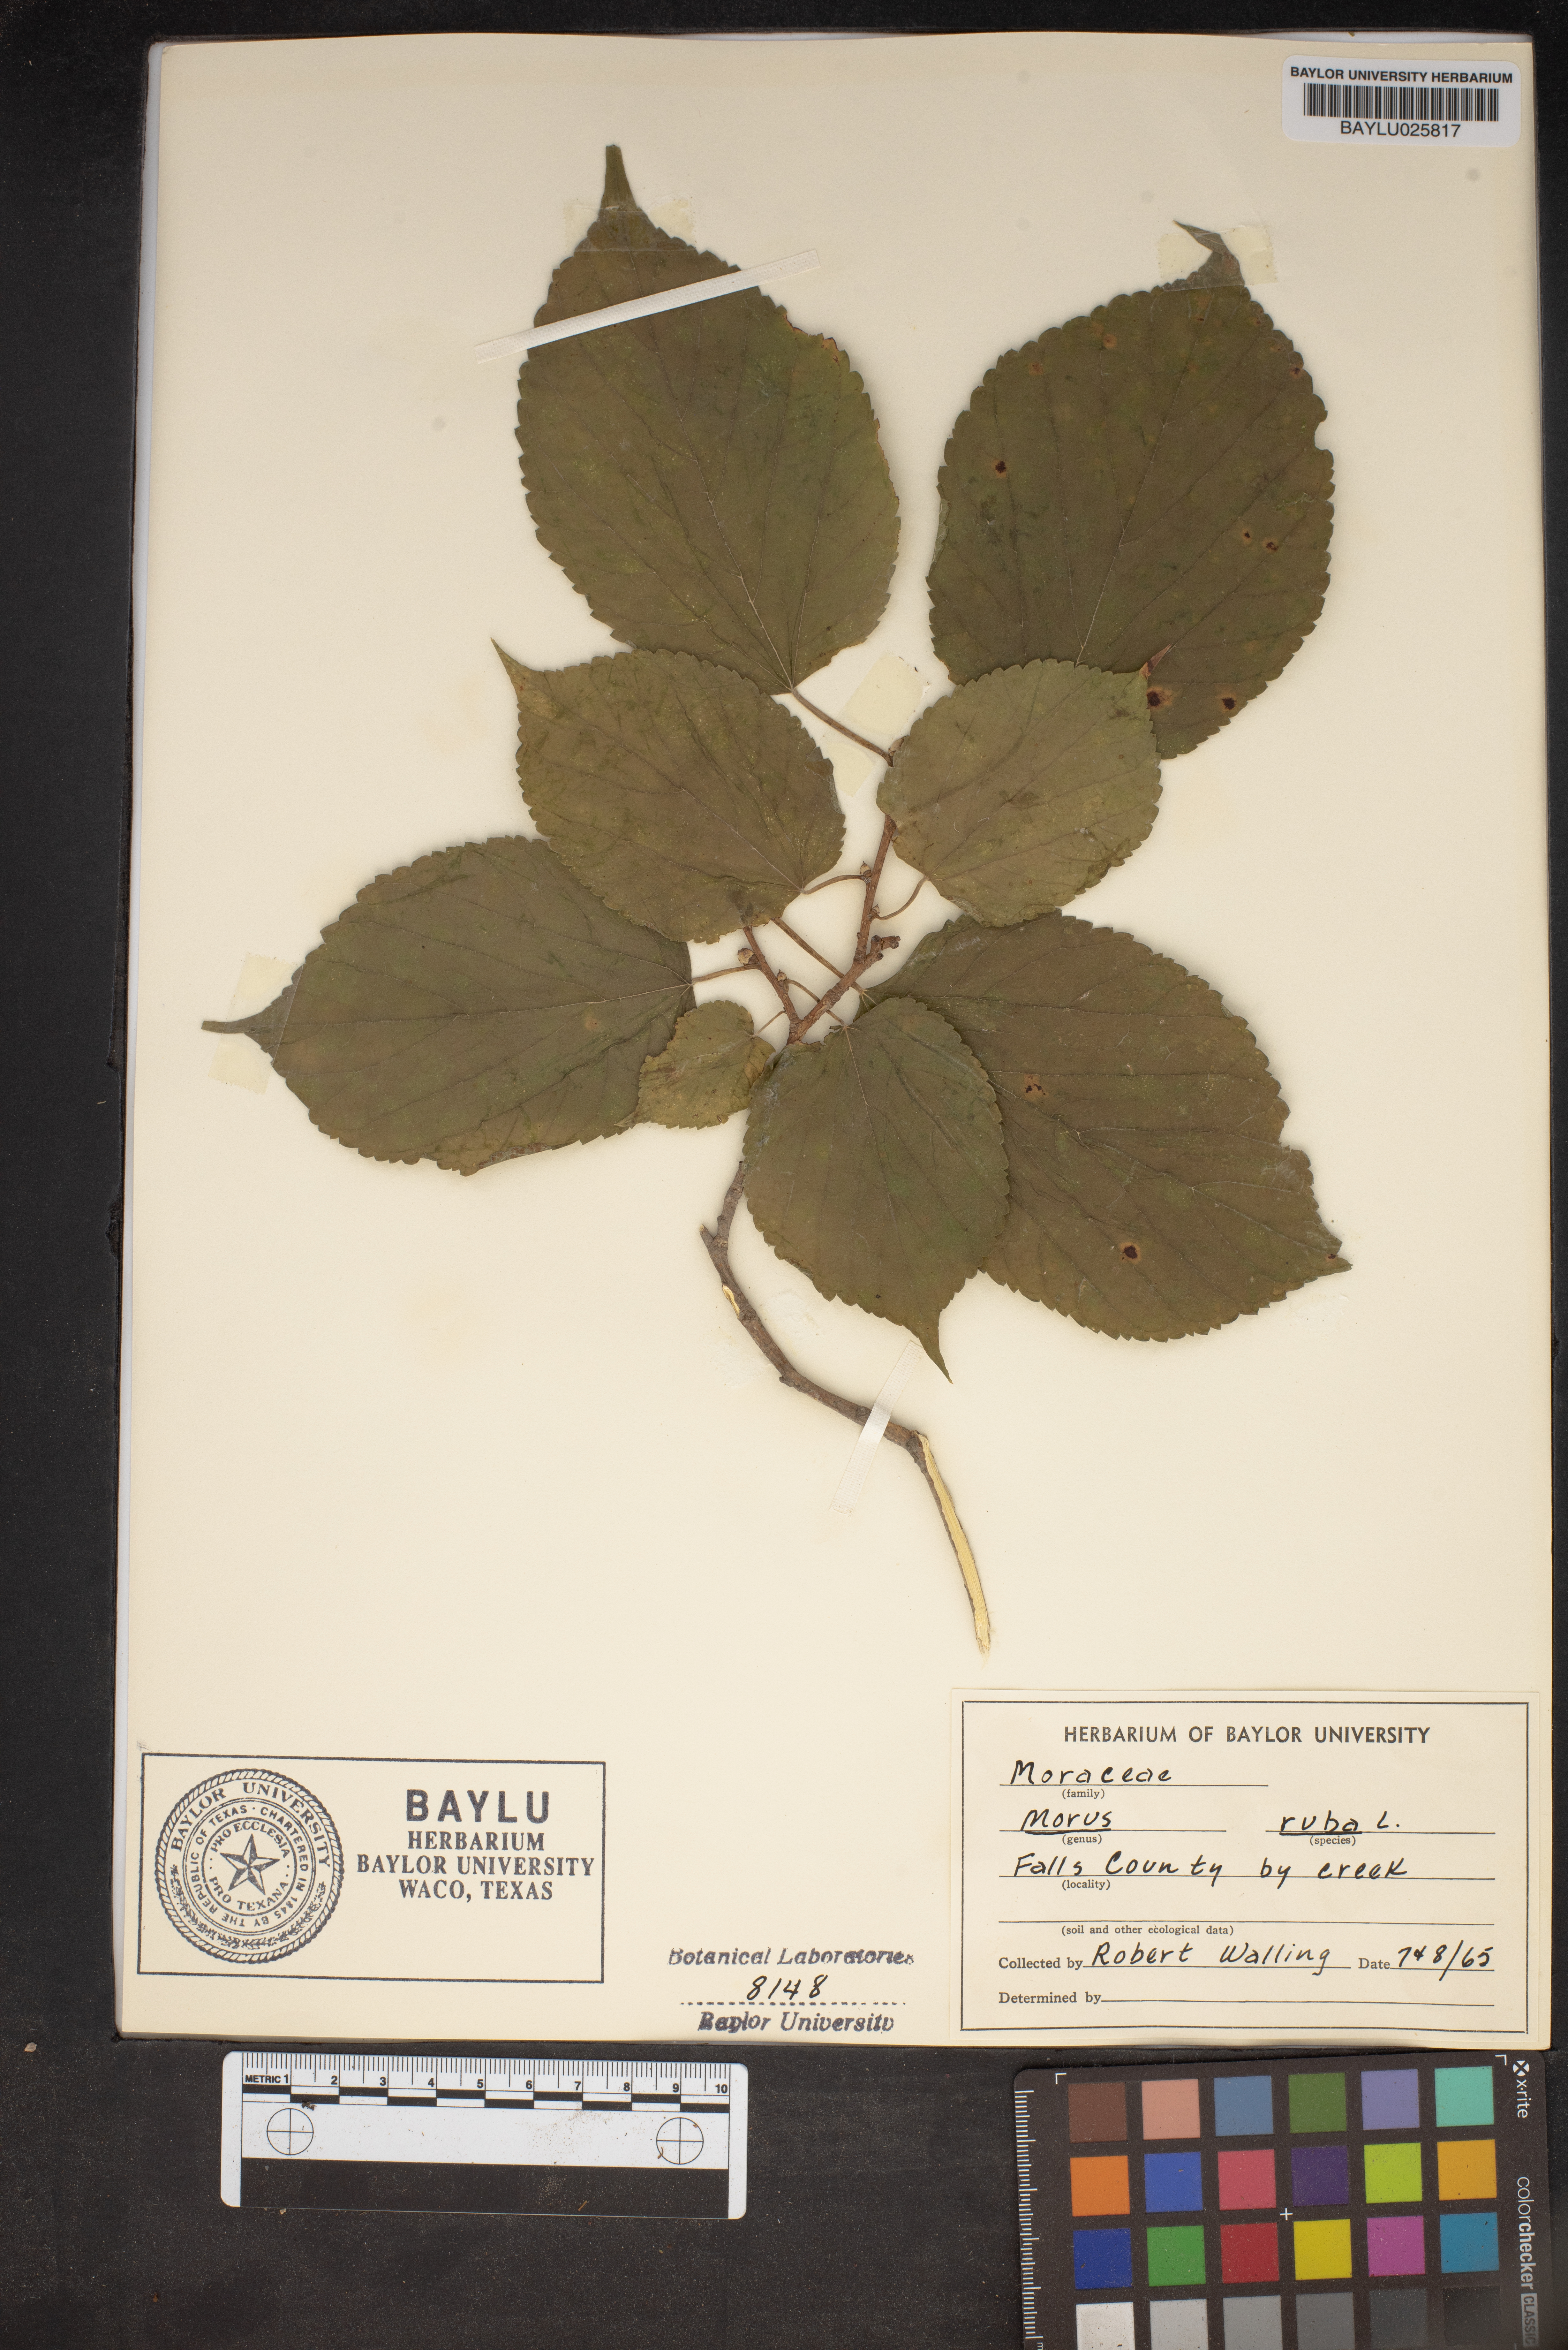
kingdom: Plantae
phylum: Tracheophyta
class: Magnoliopsida
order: Rosales
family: Moraceae
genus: Morus
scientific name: Morus rubra
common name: Red mulberry
